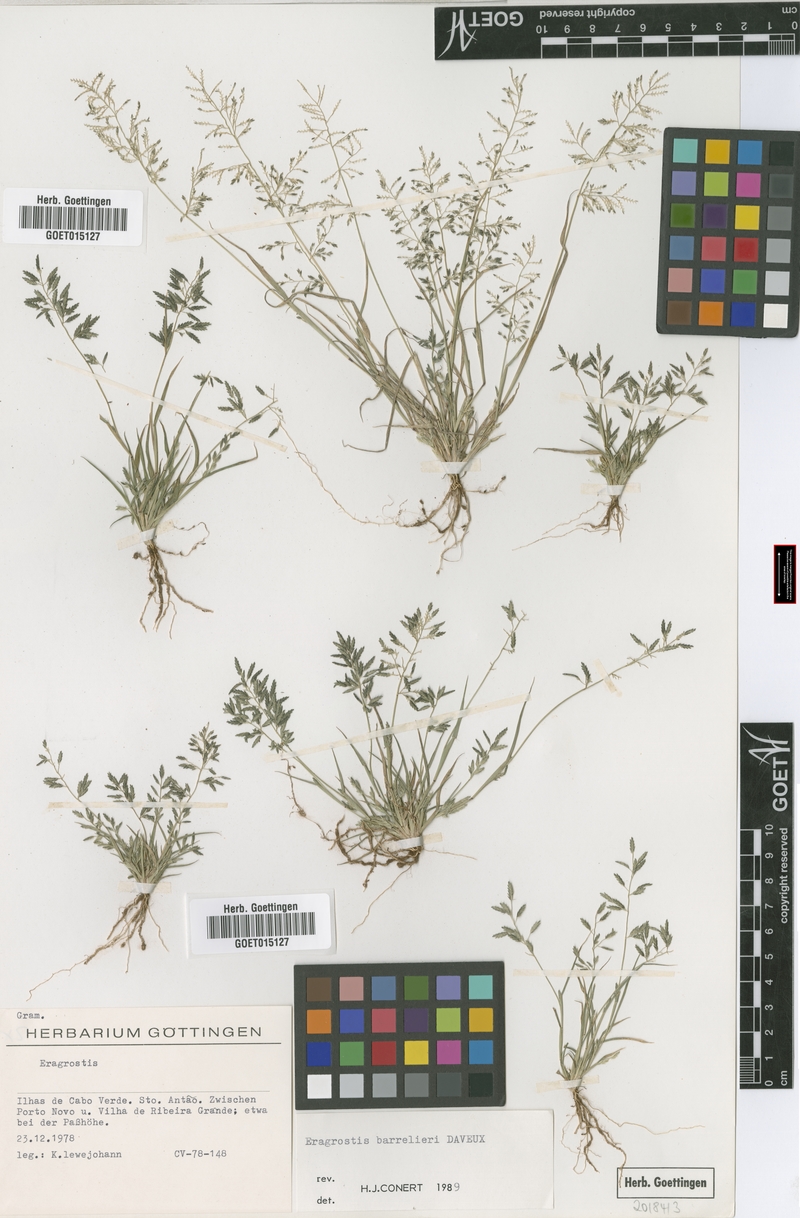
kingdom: Plantae
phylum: Tracheophyta
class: Liliopsida
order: Poales
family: Poaceae
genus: Eragrostis
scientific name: Eragrostis barrelieri
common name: Mediterranean lovegrass
